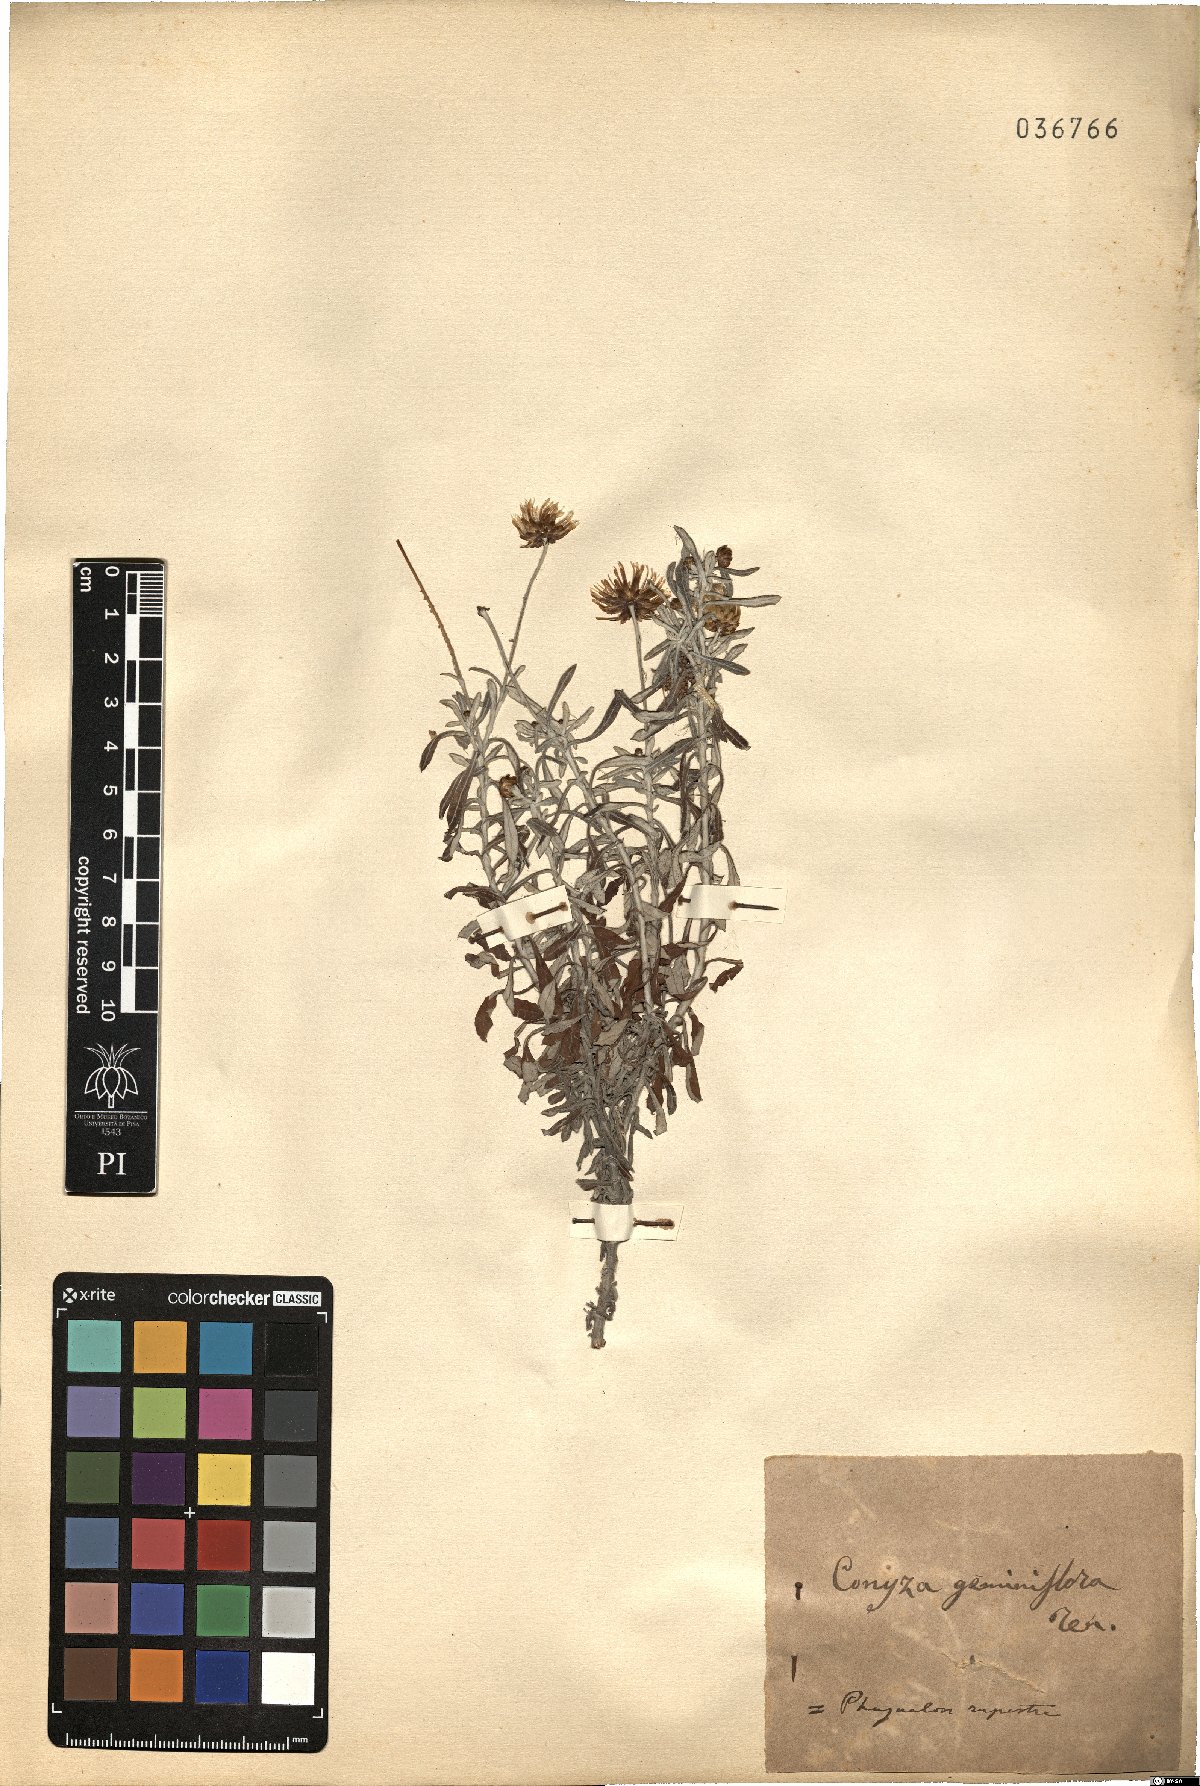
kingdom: Plantae
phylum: Tracheophyta
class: Magnoliopsida
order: Asterales
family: Asteraceae
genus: Phagnalon
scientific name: Phagnalon rupestre
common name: Rock phagnalon
